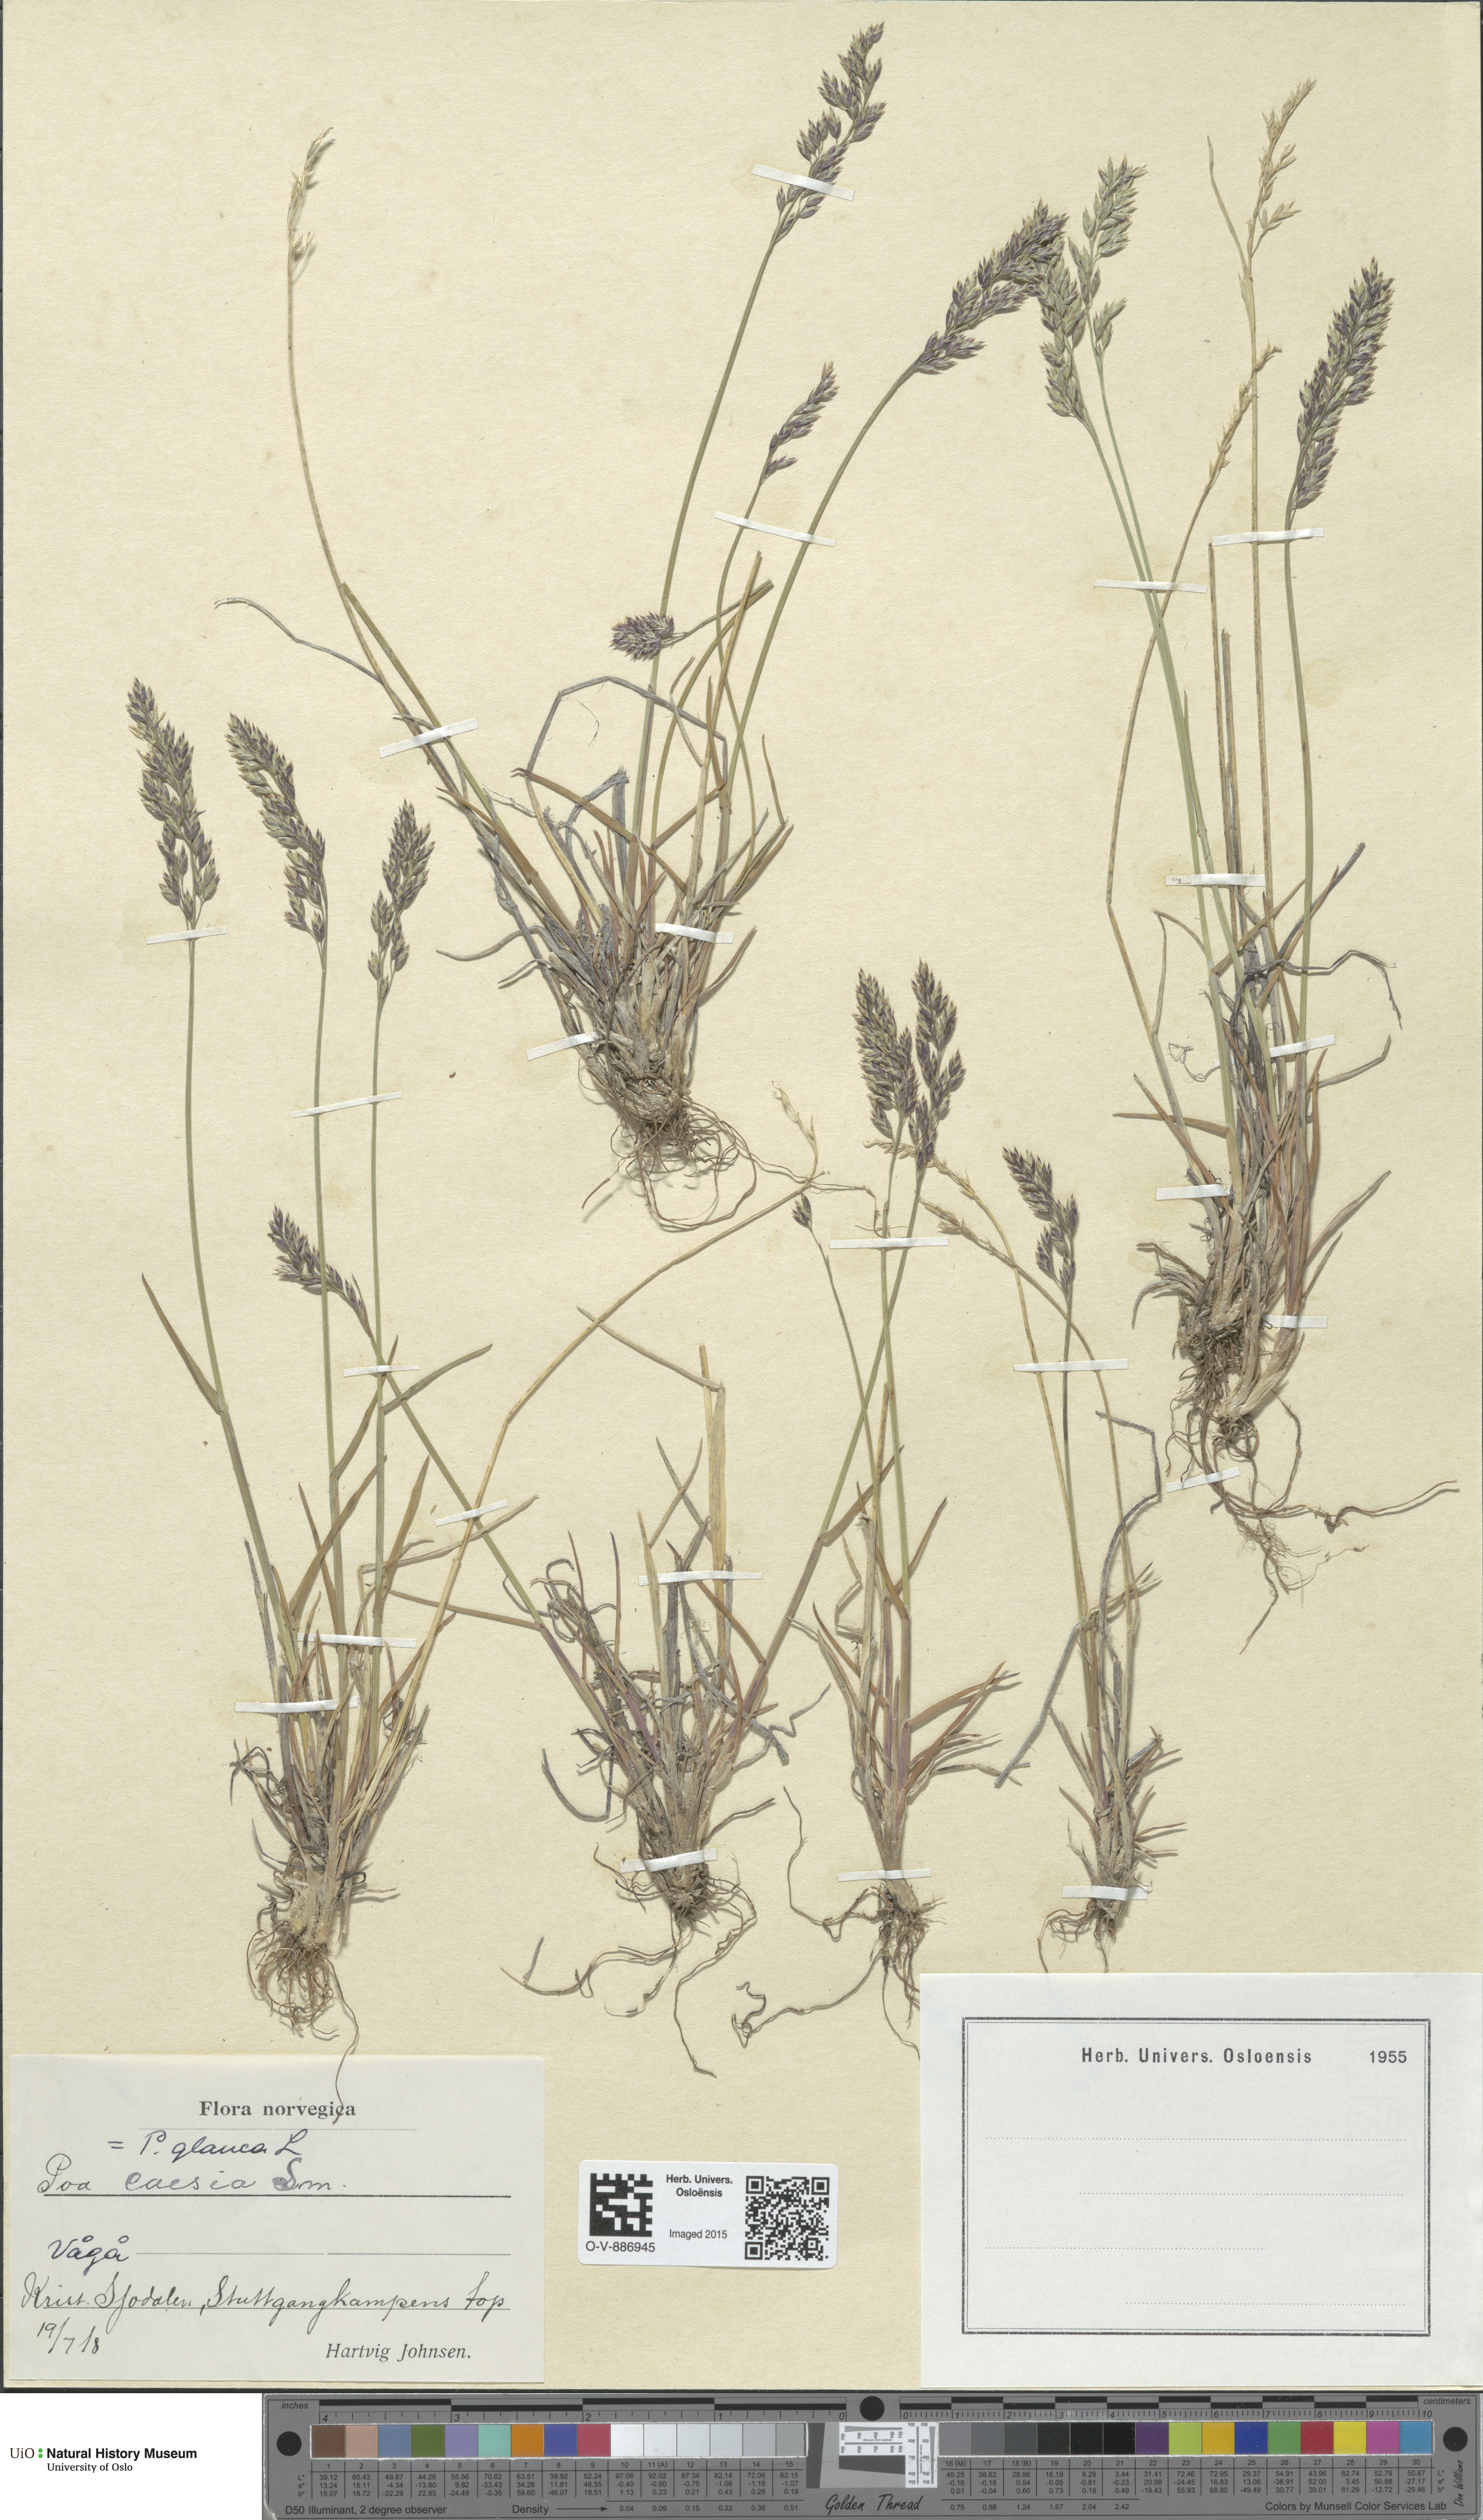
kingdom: Plantae
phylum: Tracheophyta
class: Liliopsida
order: Poales
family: Poaceae
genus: Poa
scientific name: Poa glauca
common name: Glaucous bluegrass
